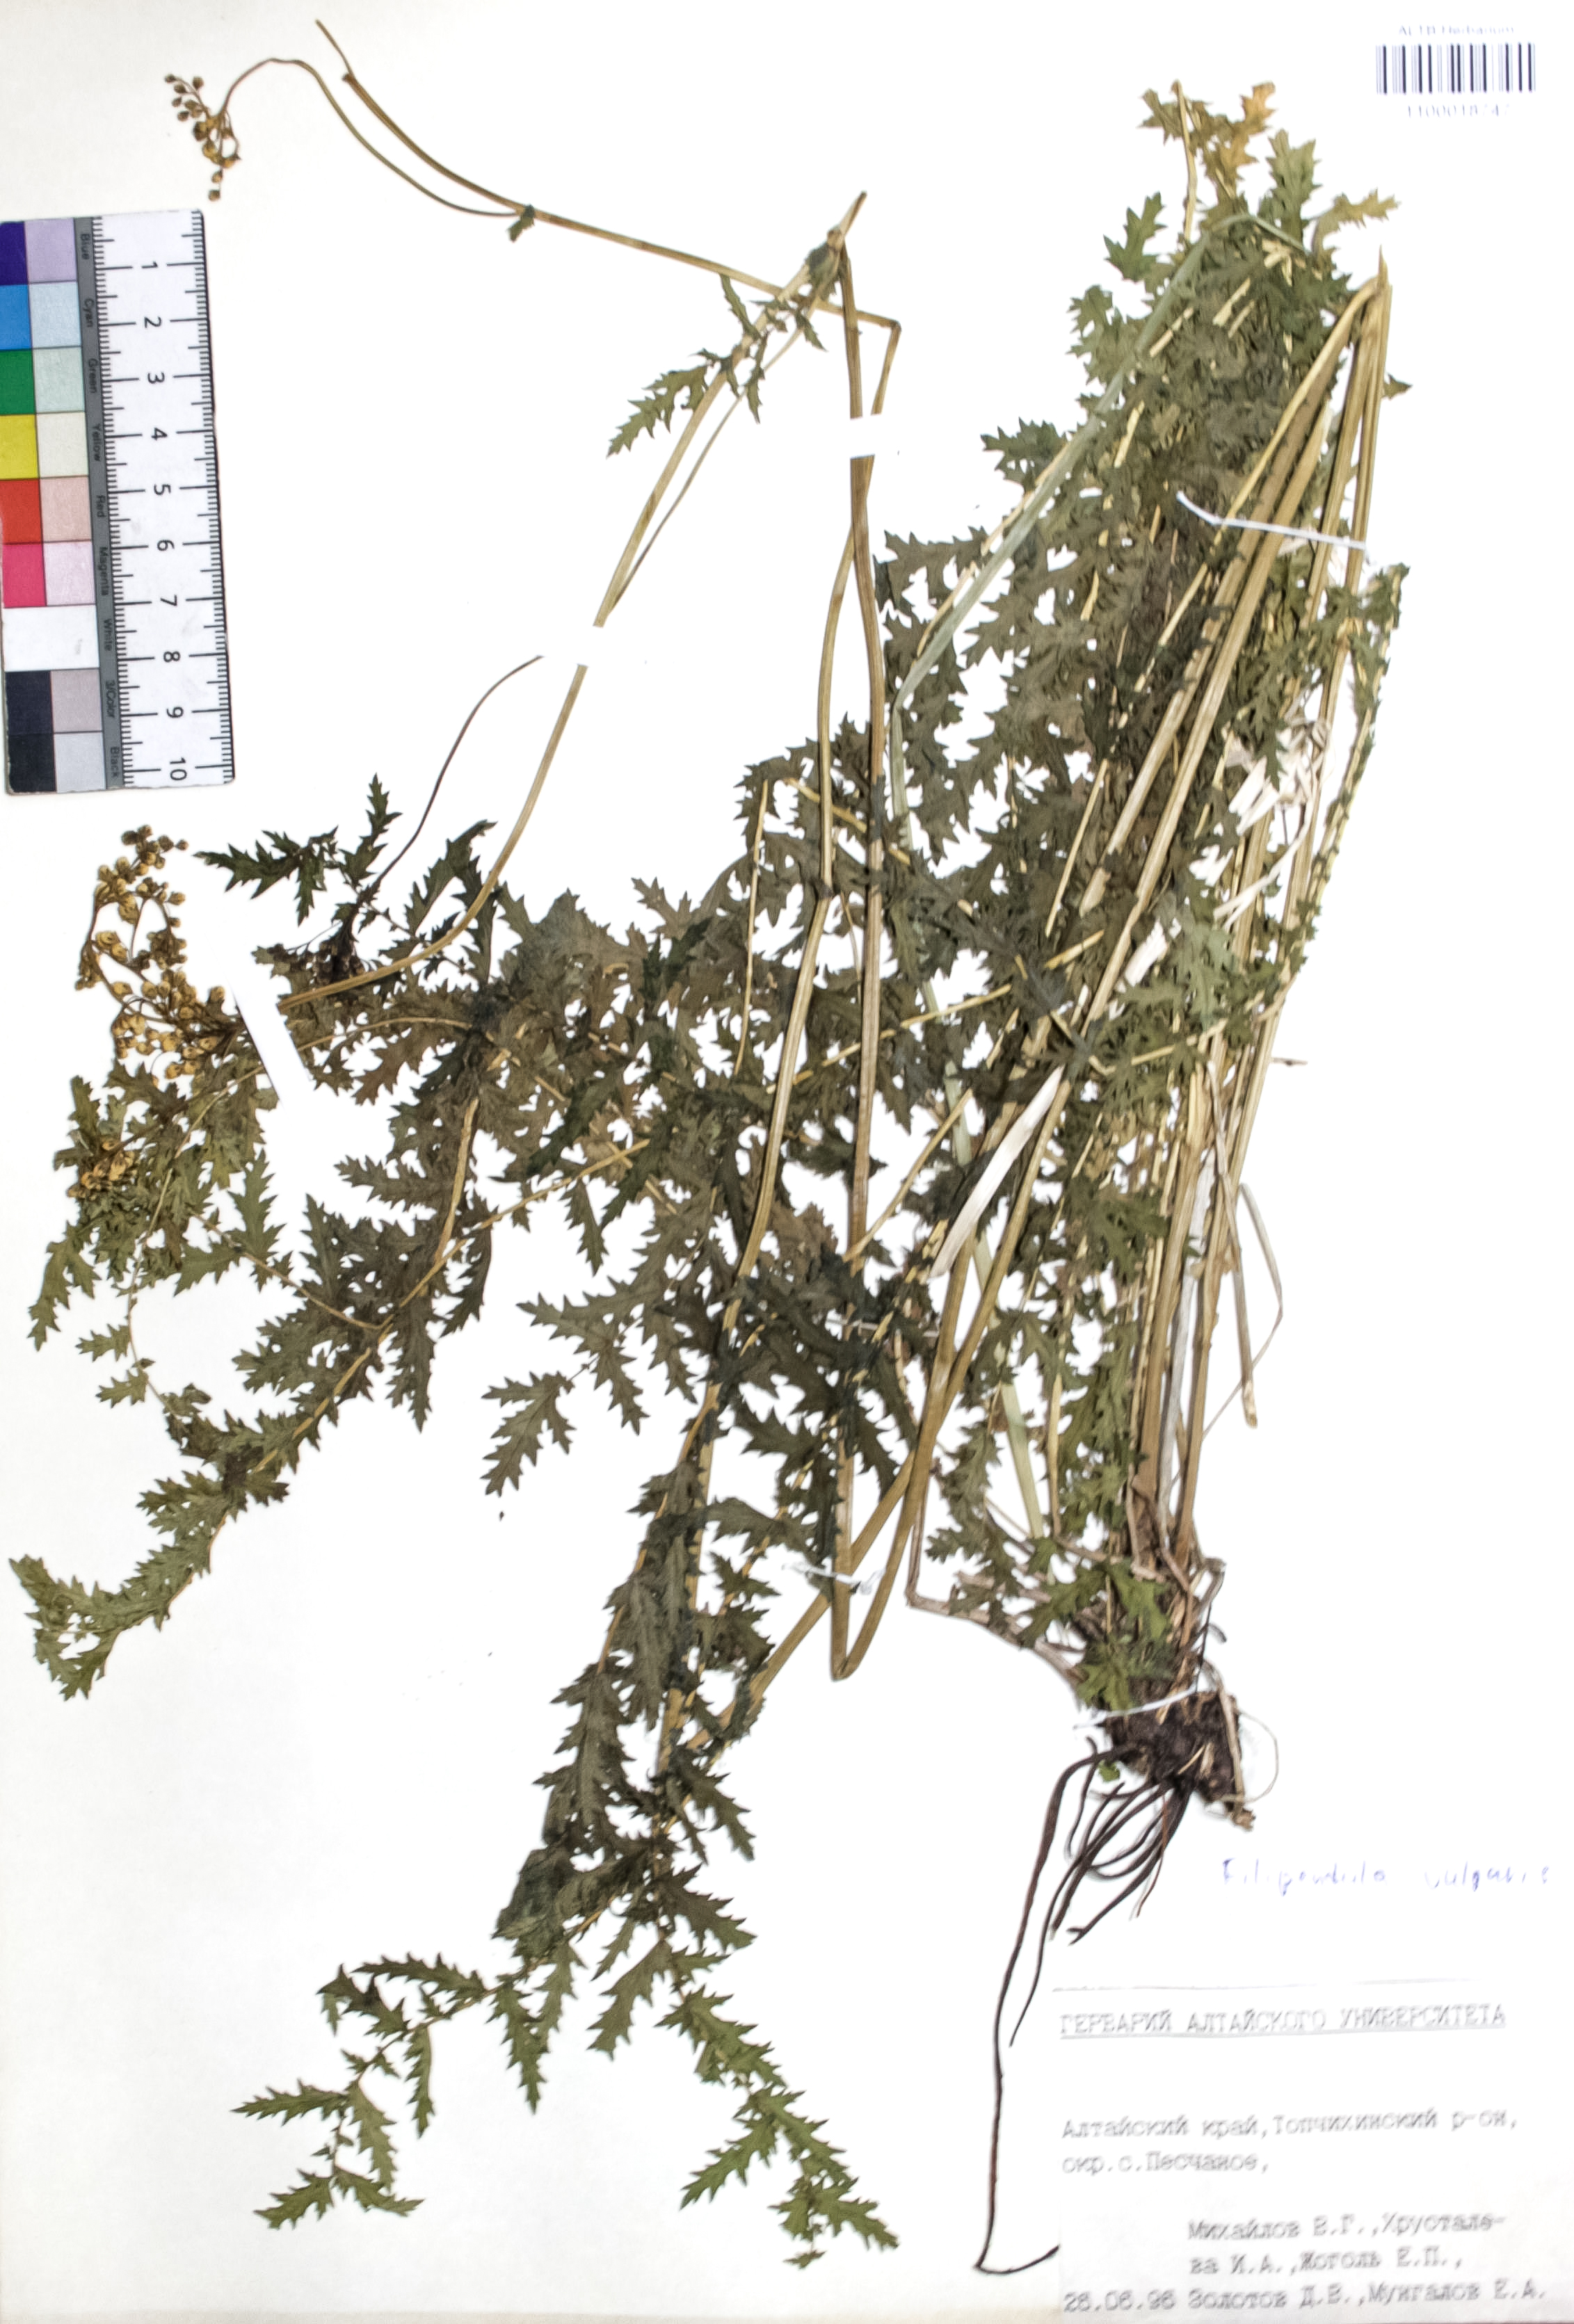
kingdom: Plantae
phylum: Tracheophyta
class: Magnoliopsida
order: Rosales
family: Rosaceae
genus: Filipendula
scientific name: Filipendula vulgaris
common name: Dropwort
